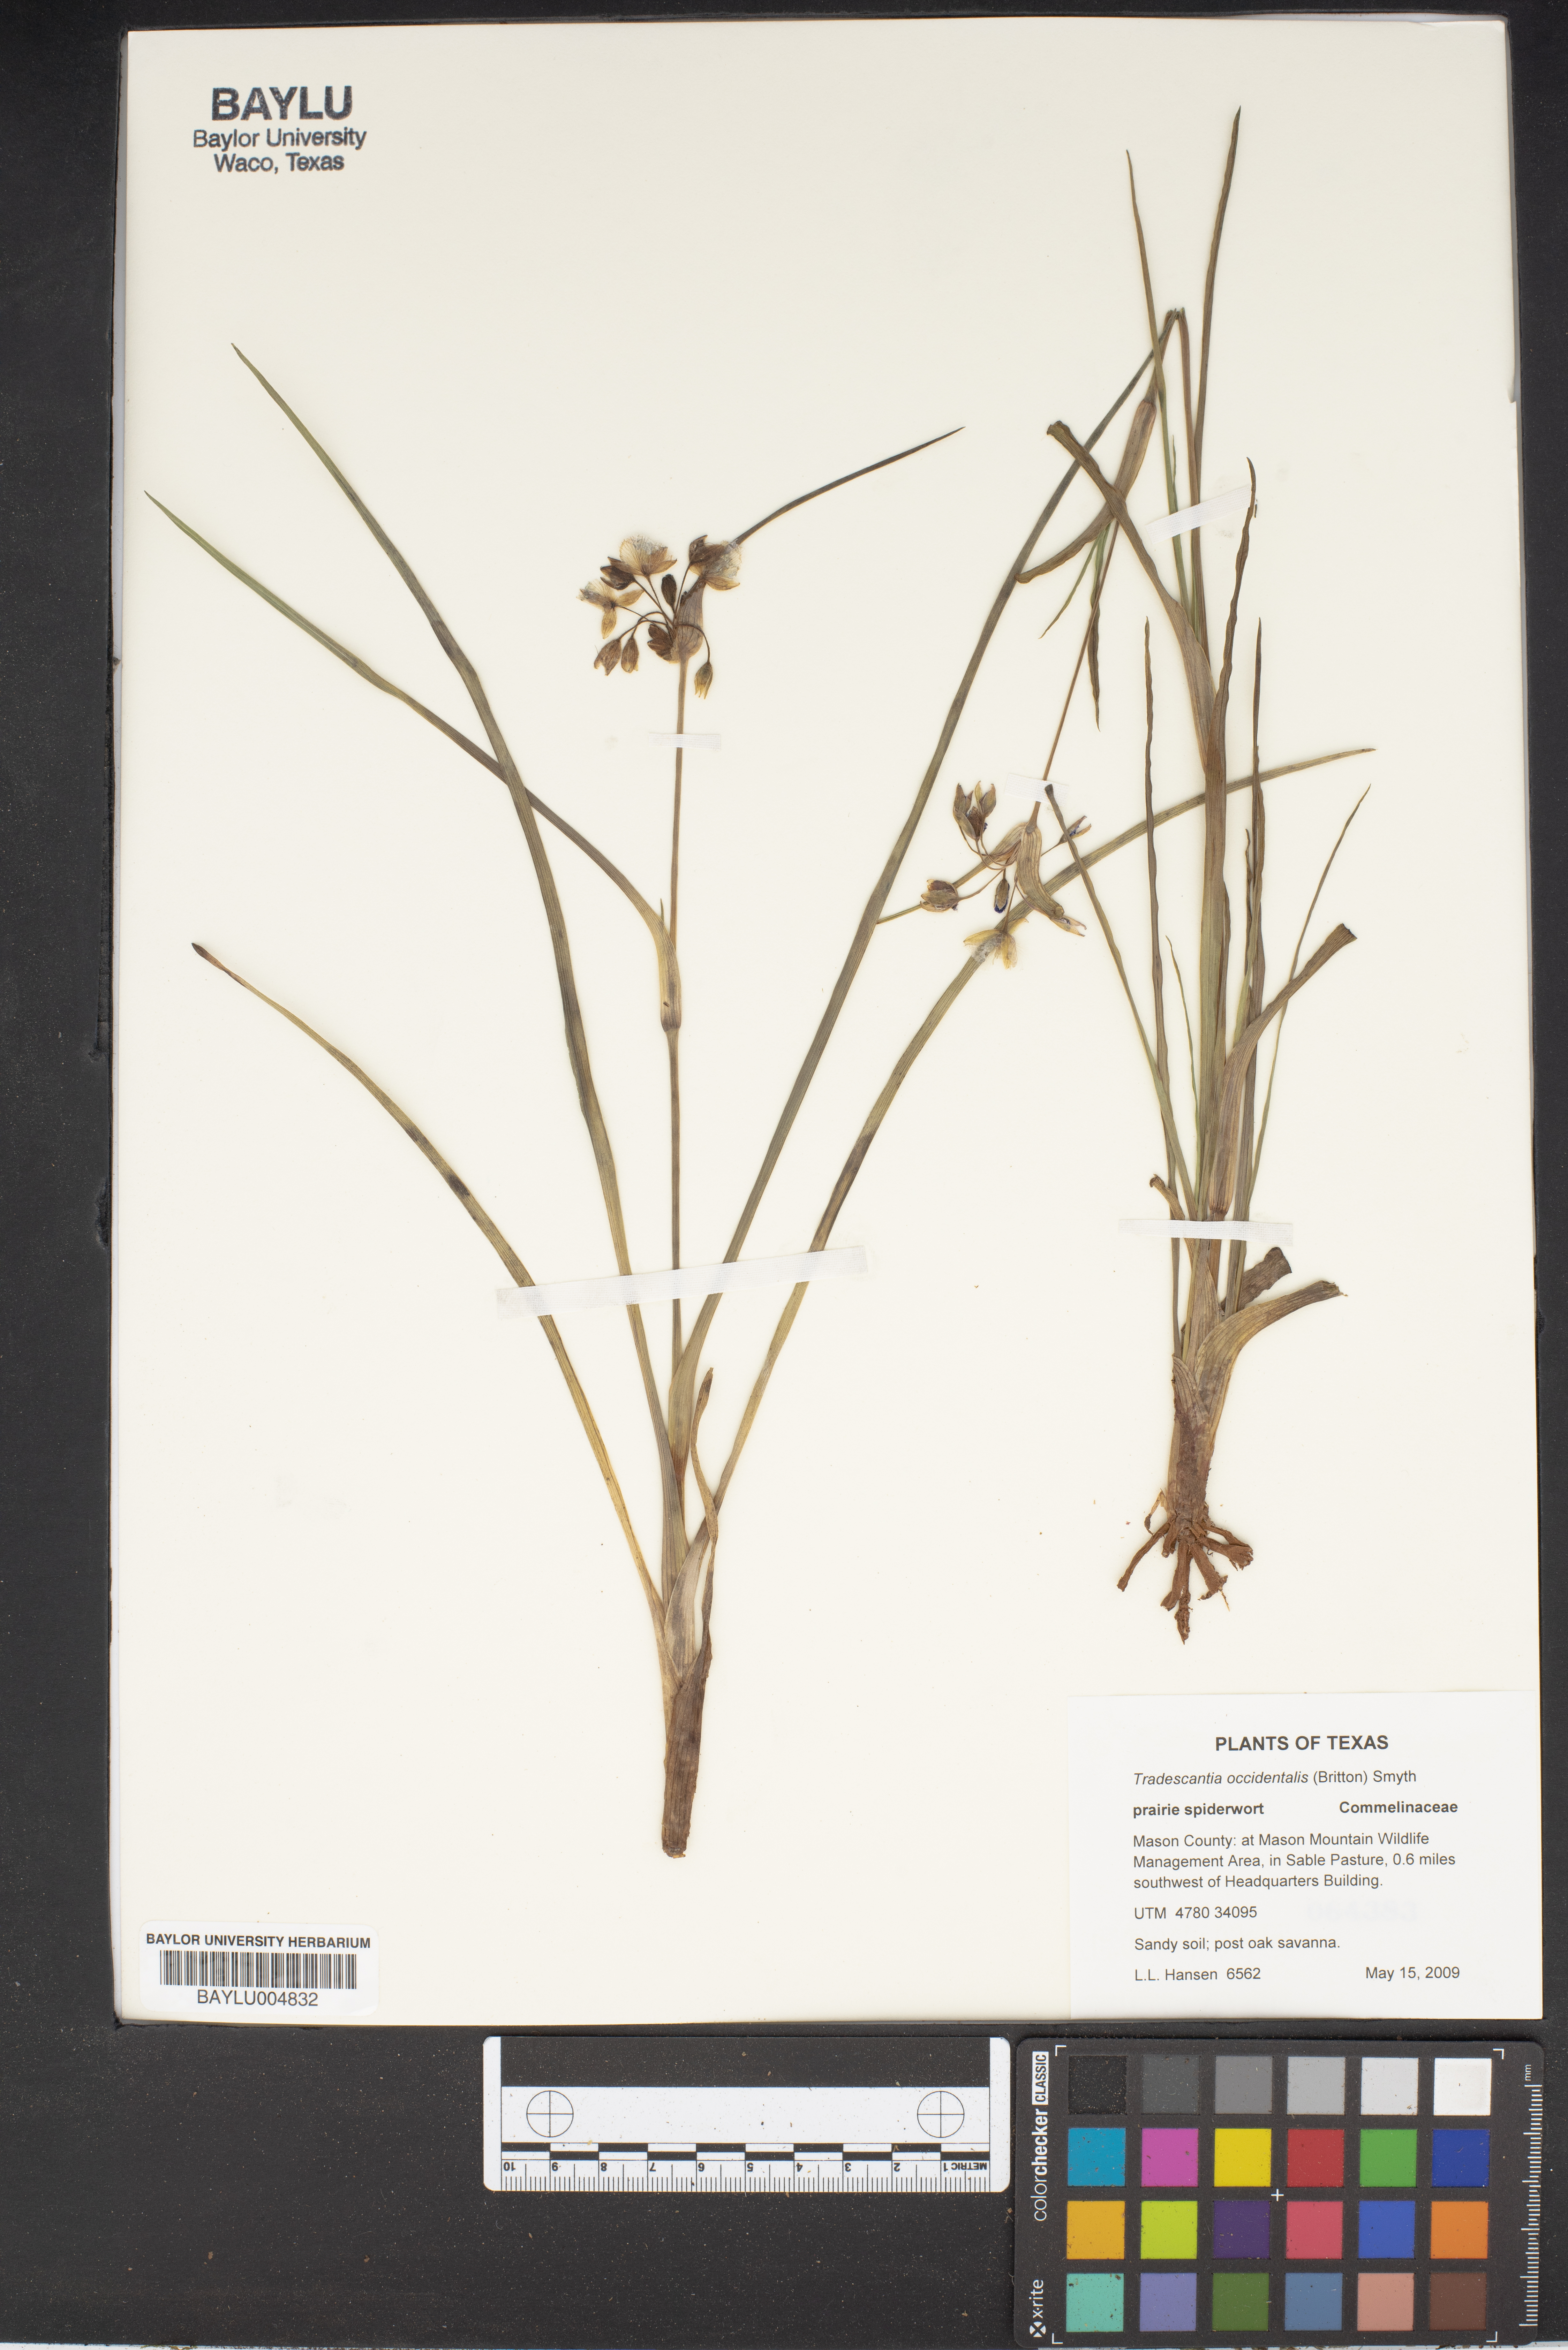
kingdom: Plantae
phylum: Tracheophyta
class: Liliopsida
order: Commelinales
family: Commelinaceae
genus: Tradescantia
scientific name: Tradescantia occidentalis
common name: Prairie spiderwort
